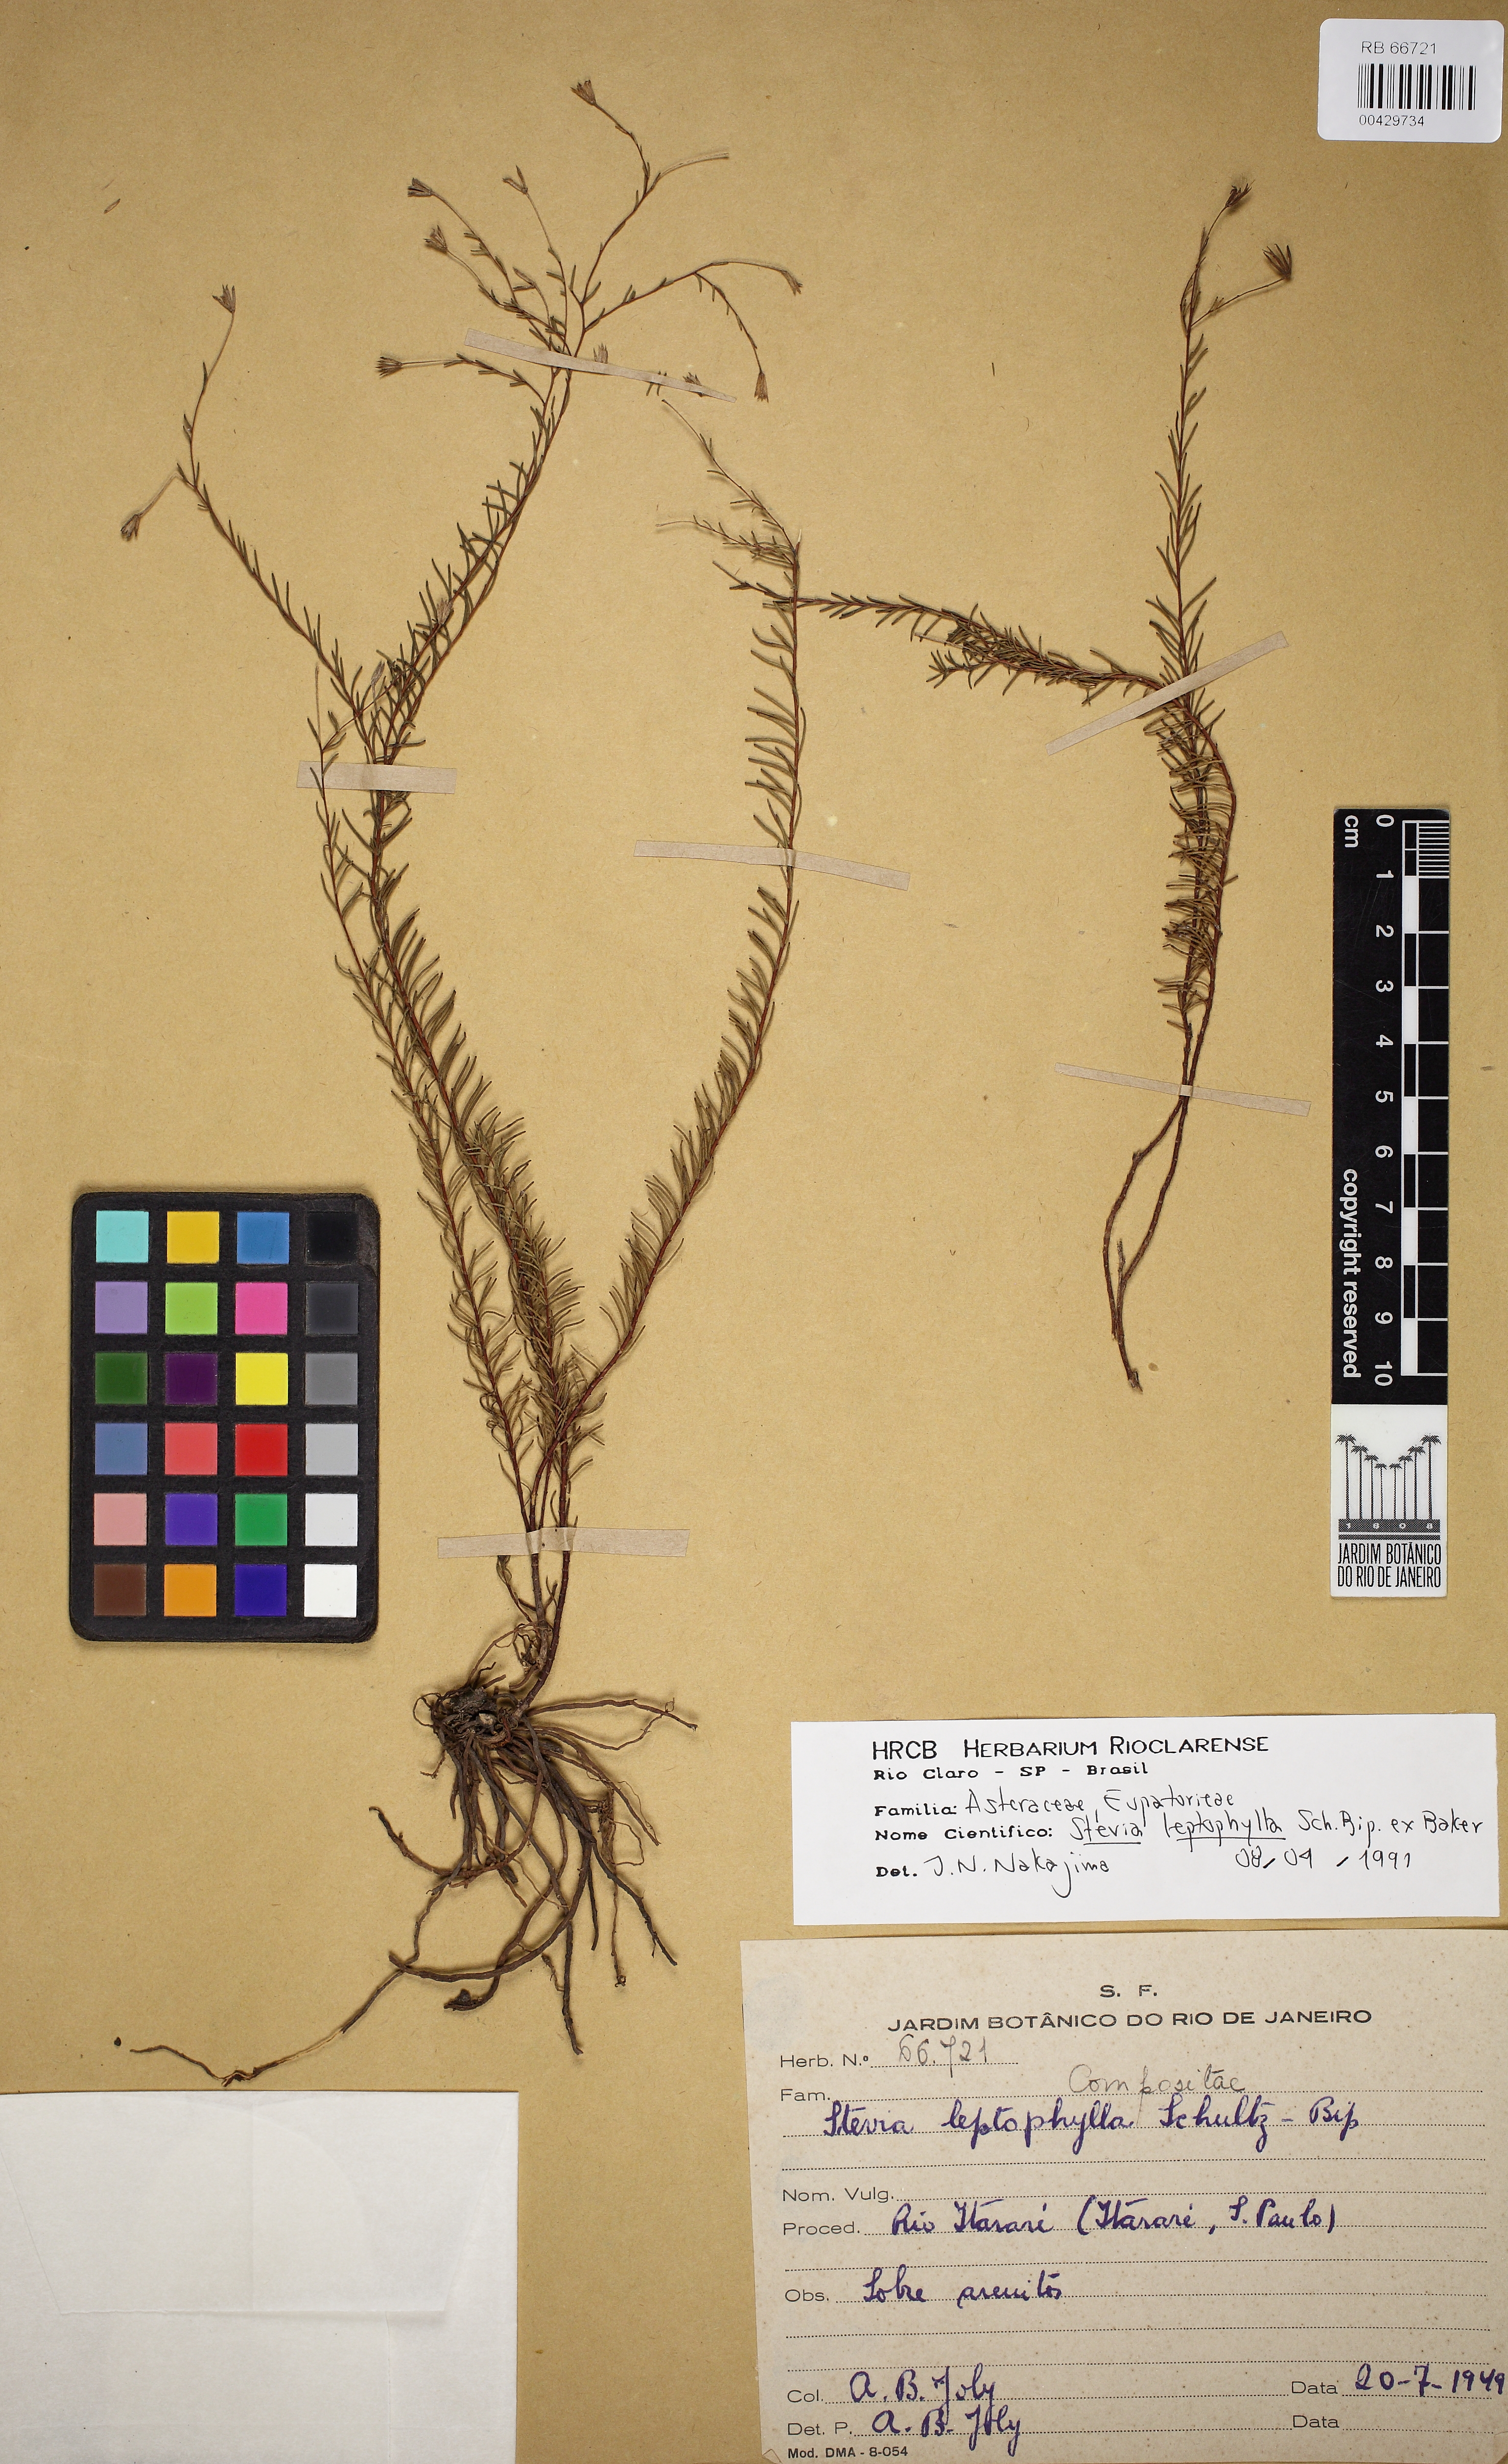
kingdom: Plantae
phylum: Tracheophyta
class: Magnoliopsida
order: Asterales
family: Asteraceae
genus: Stevia
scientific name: Stevia leptophylla
